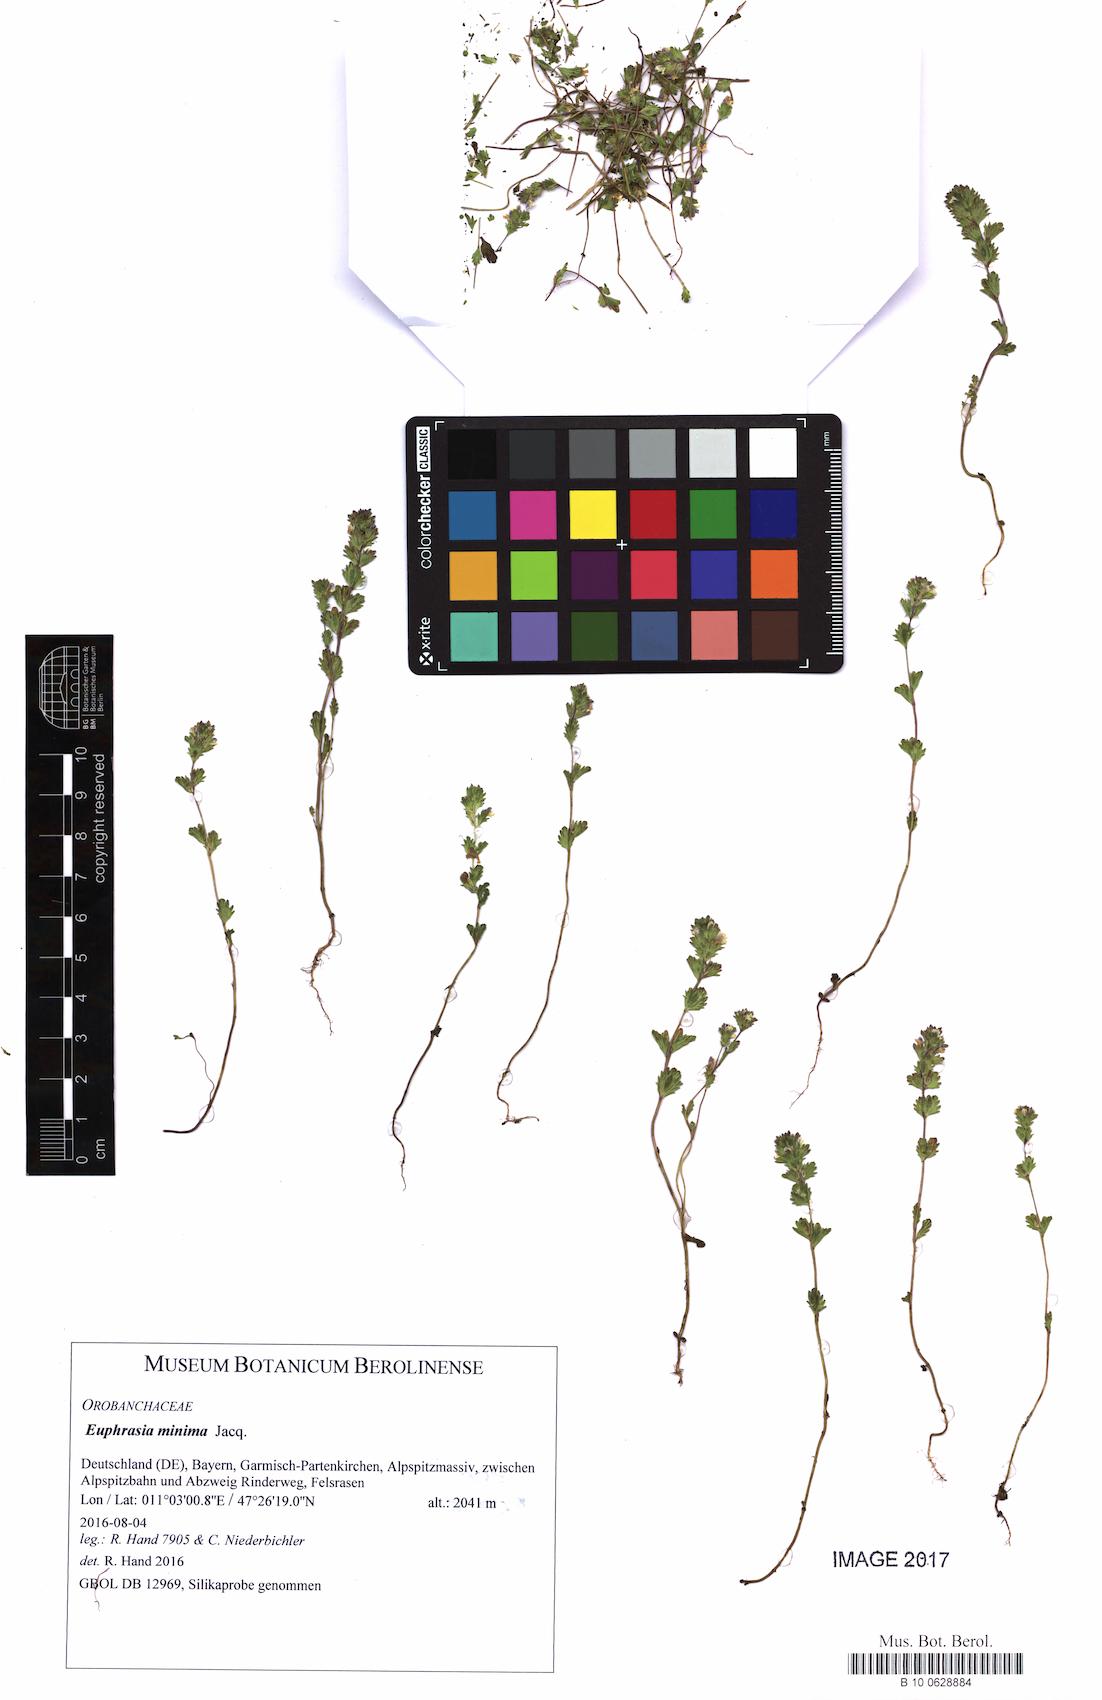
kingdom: Plantae
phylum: Tracheophyta
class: Magnoliopsida
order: Lamiales
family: Orobanchaceae
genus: Euphrasia
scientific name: Euphrasia minima
